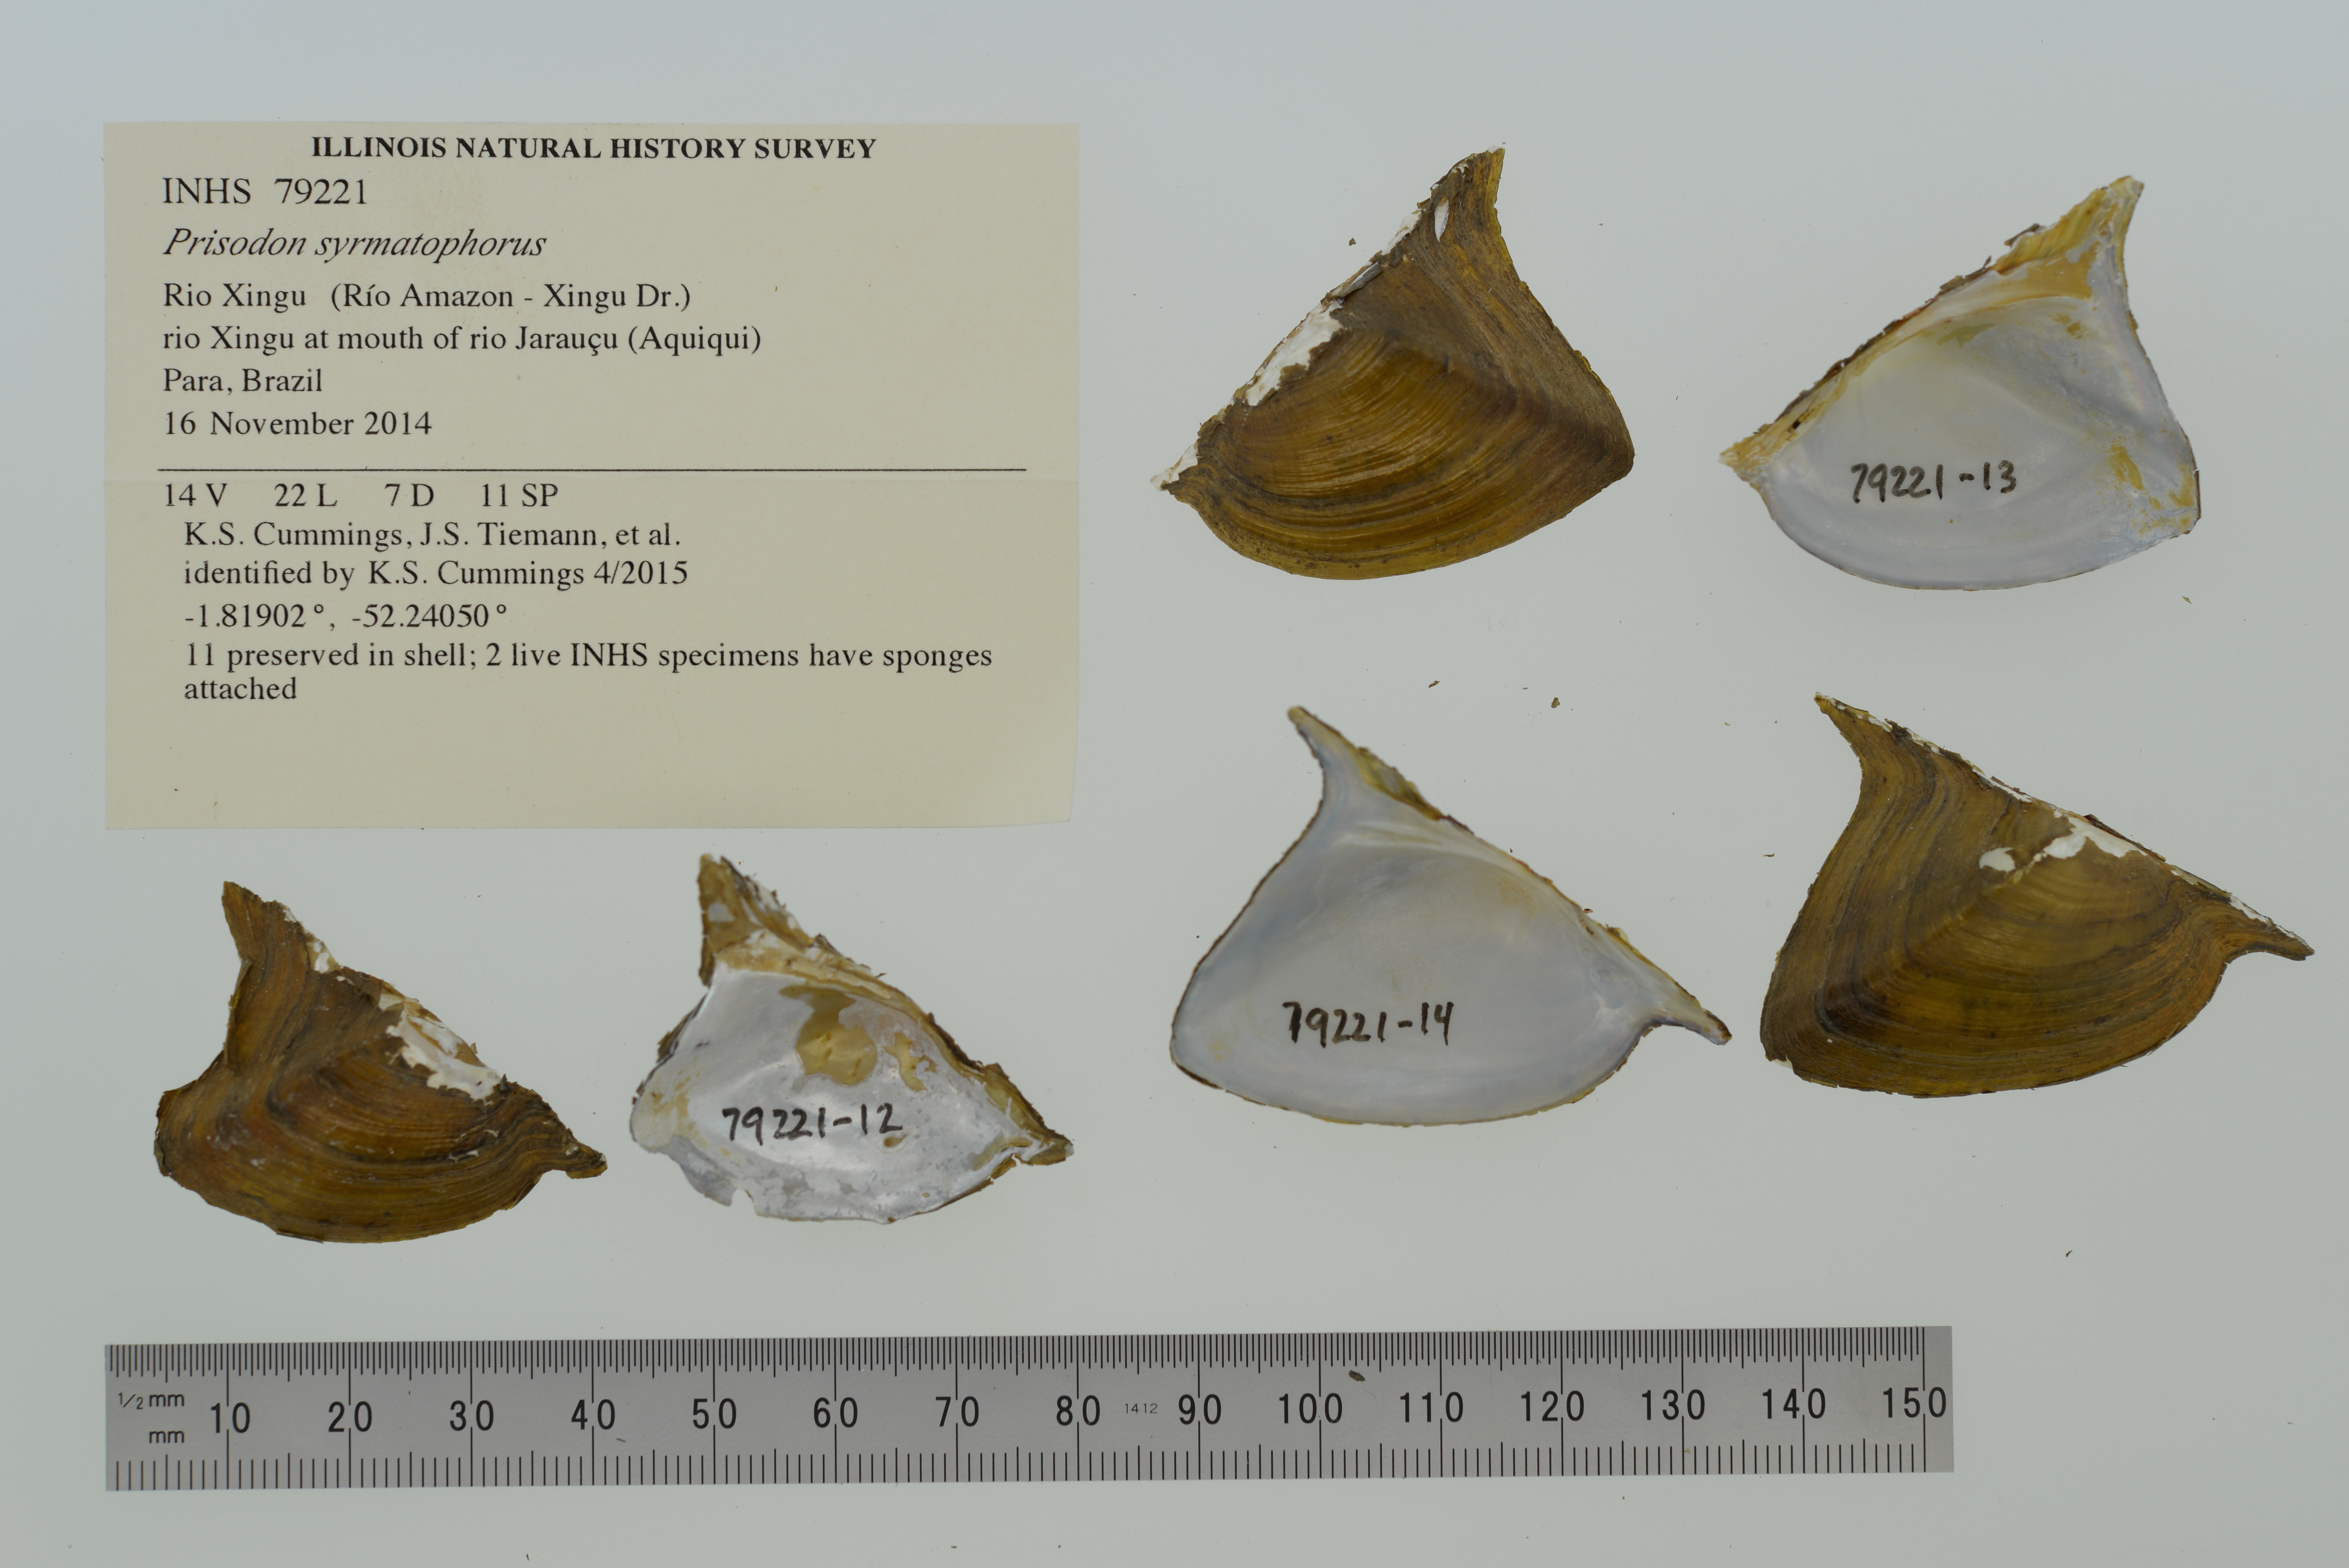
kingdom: Animalia
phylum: Mollusca
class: Bivalvia
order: Unionida
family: Hyriidae
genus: Prisodon
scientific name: Prisodon syrmatophorus
